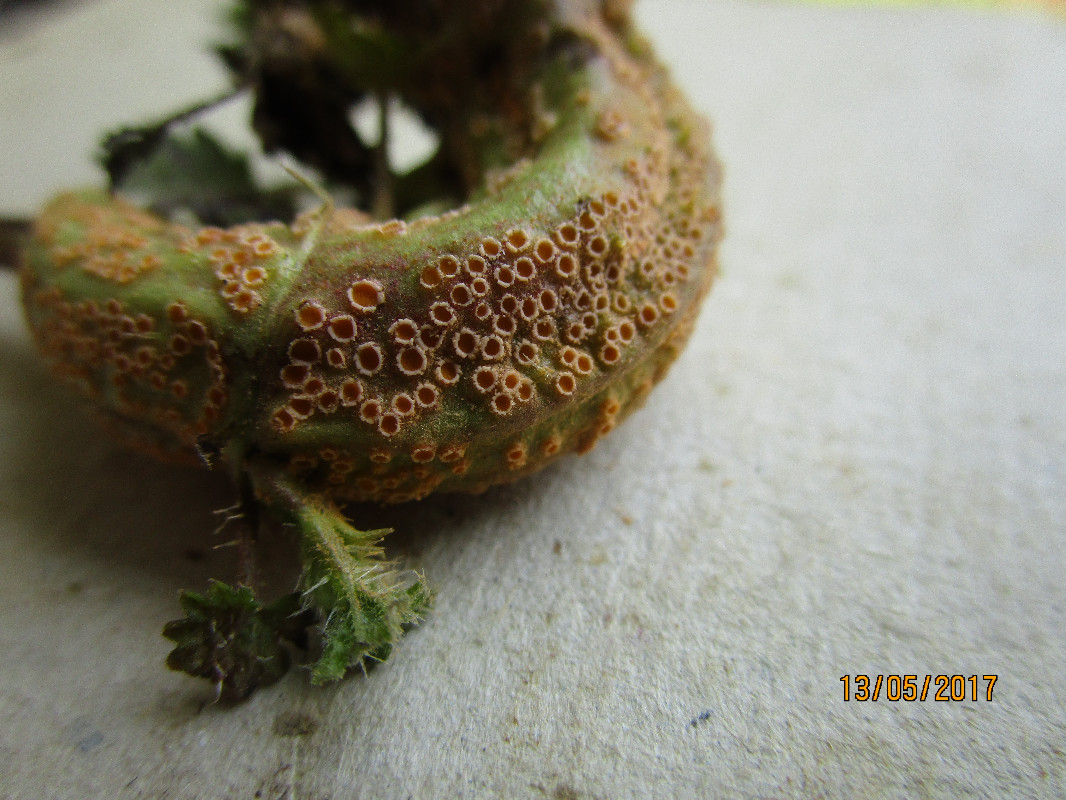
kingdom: Fungi
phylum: Basidiomycota
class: Pucciniomycetes
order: Pucciniales
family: Pucciniaceae
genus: Puccinia
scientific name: Puccinia urticata
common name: nældegalle-tvecellerust
